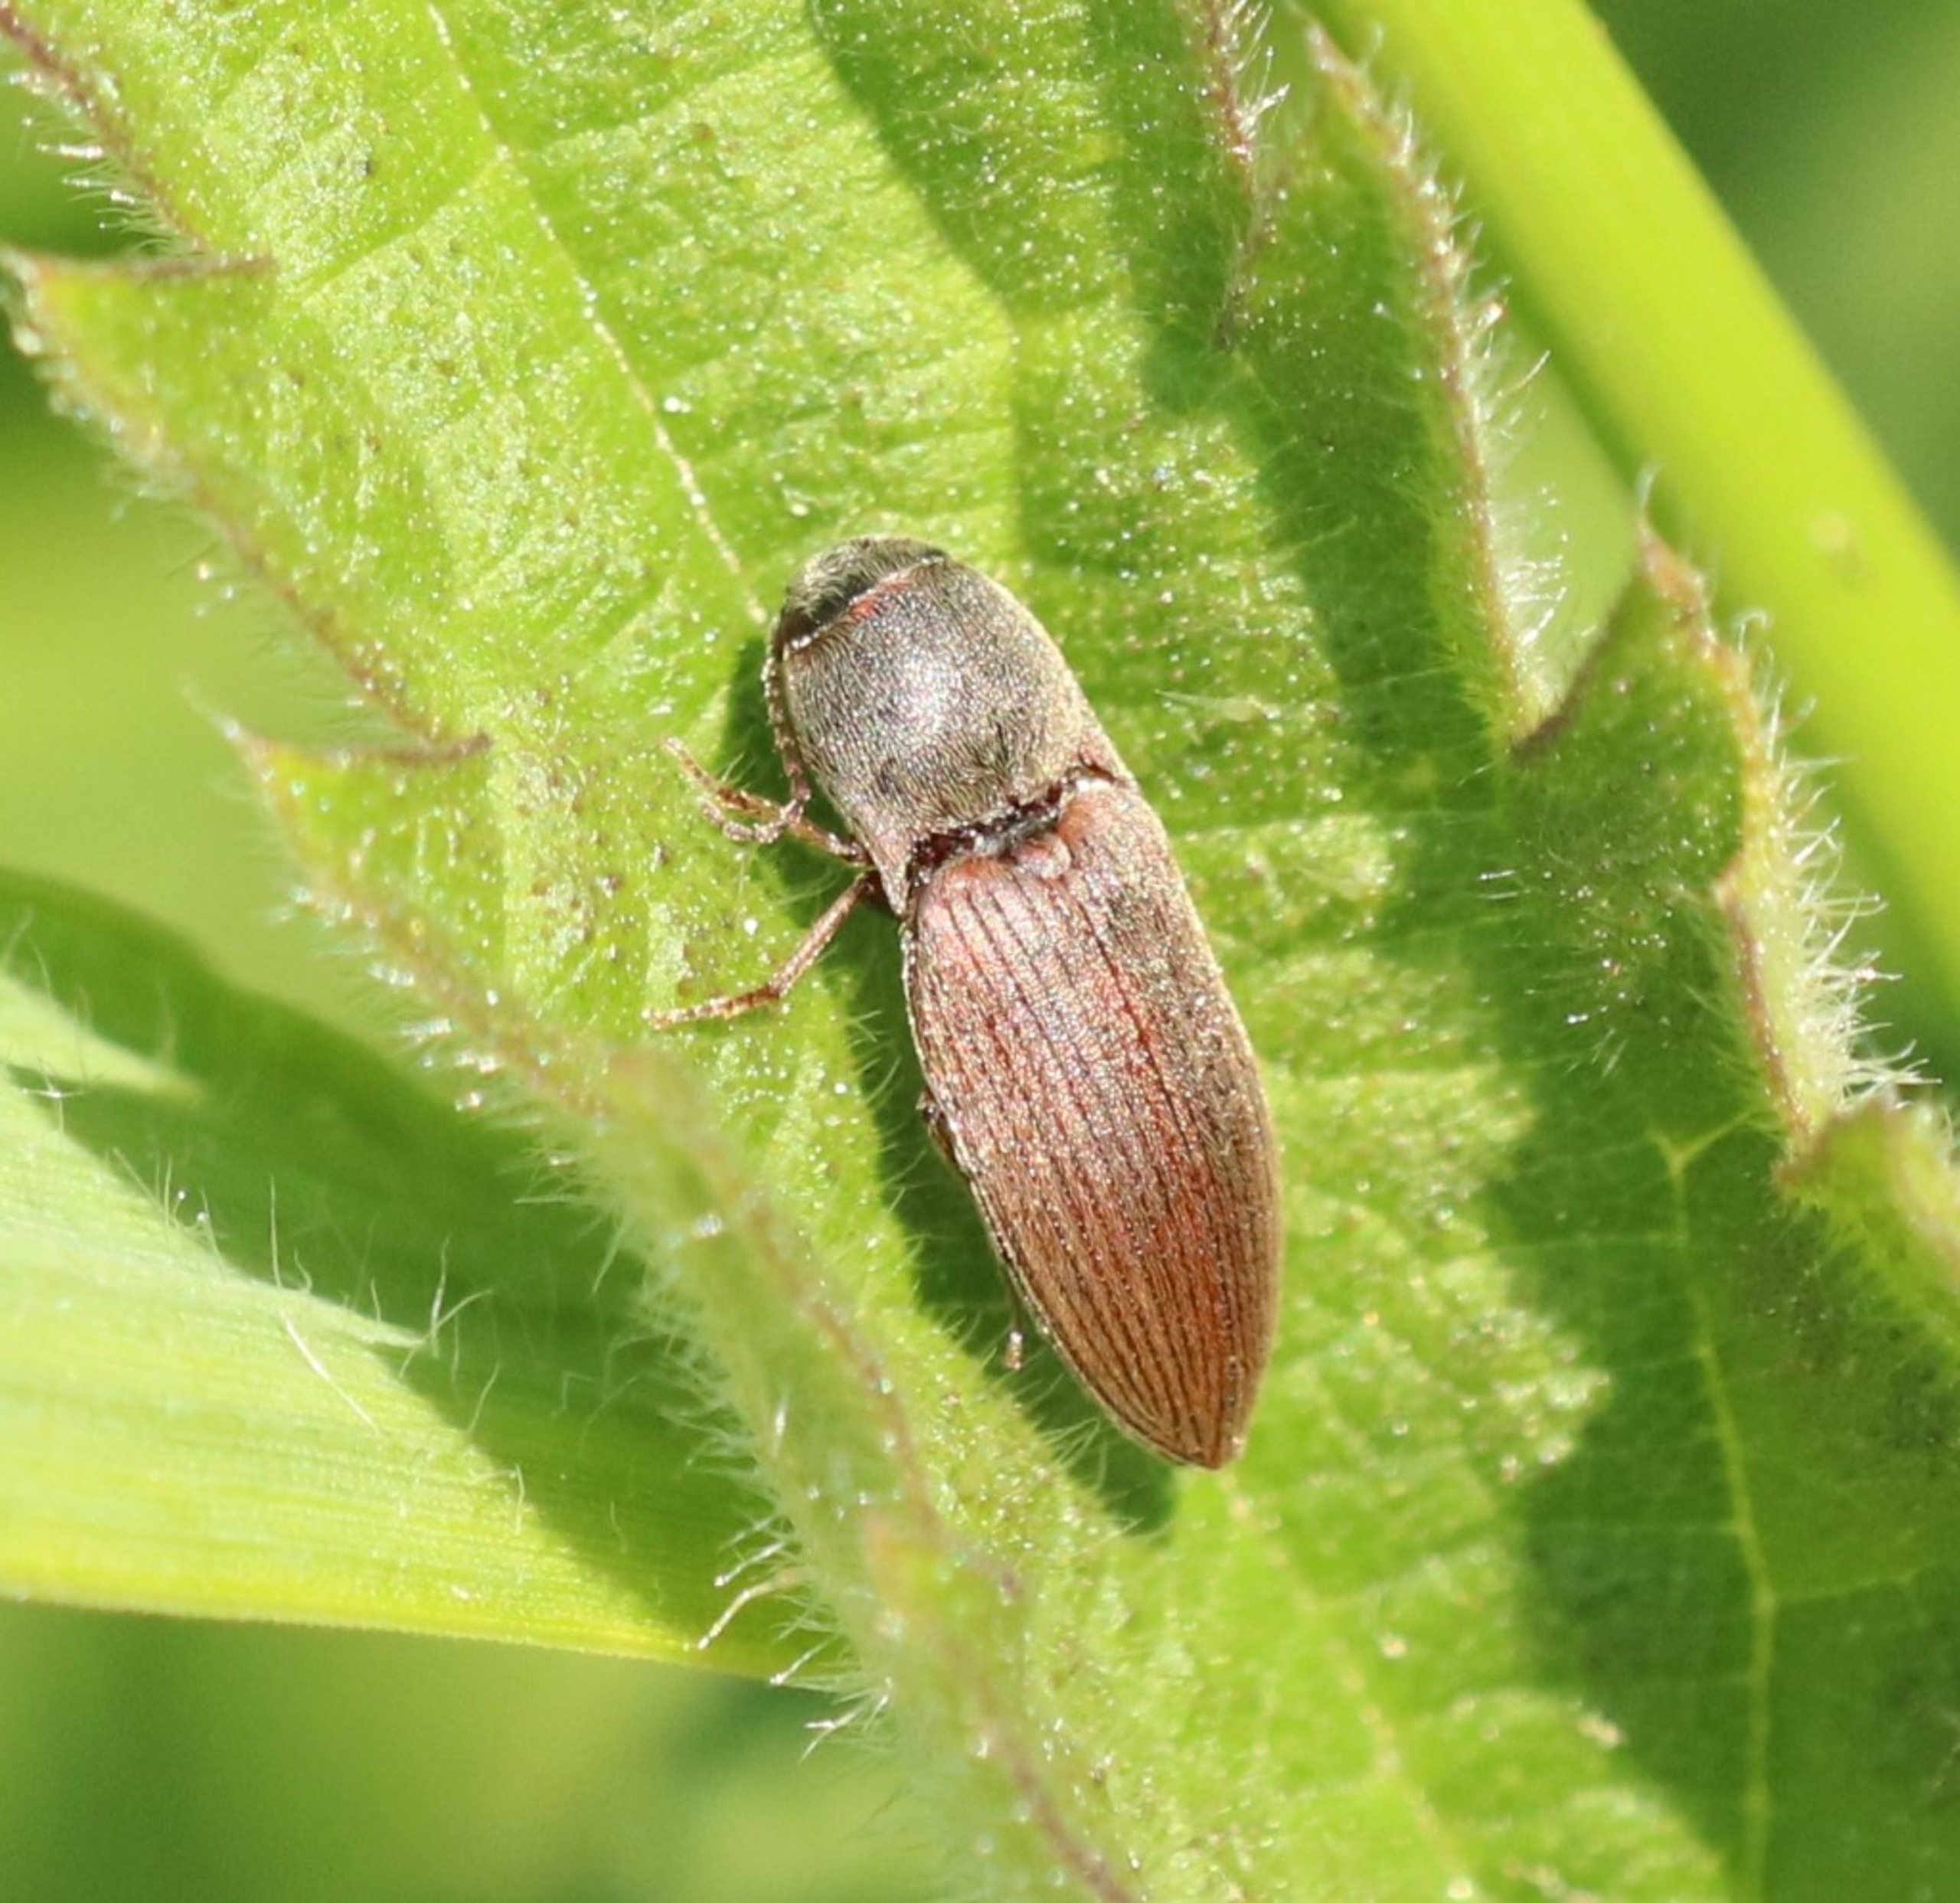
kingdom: Animalia
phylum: Arthropoda
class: Insecta
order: Coleoptera
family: Elateridae
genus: Agriotes
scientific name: Agriotes obscurus
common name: Mørk kornsmælder
